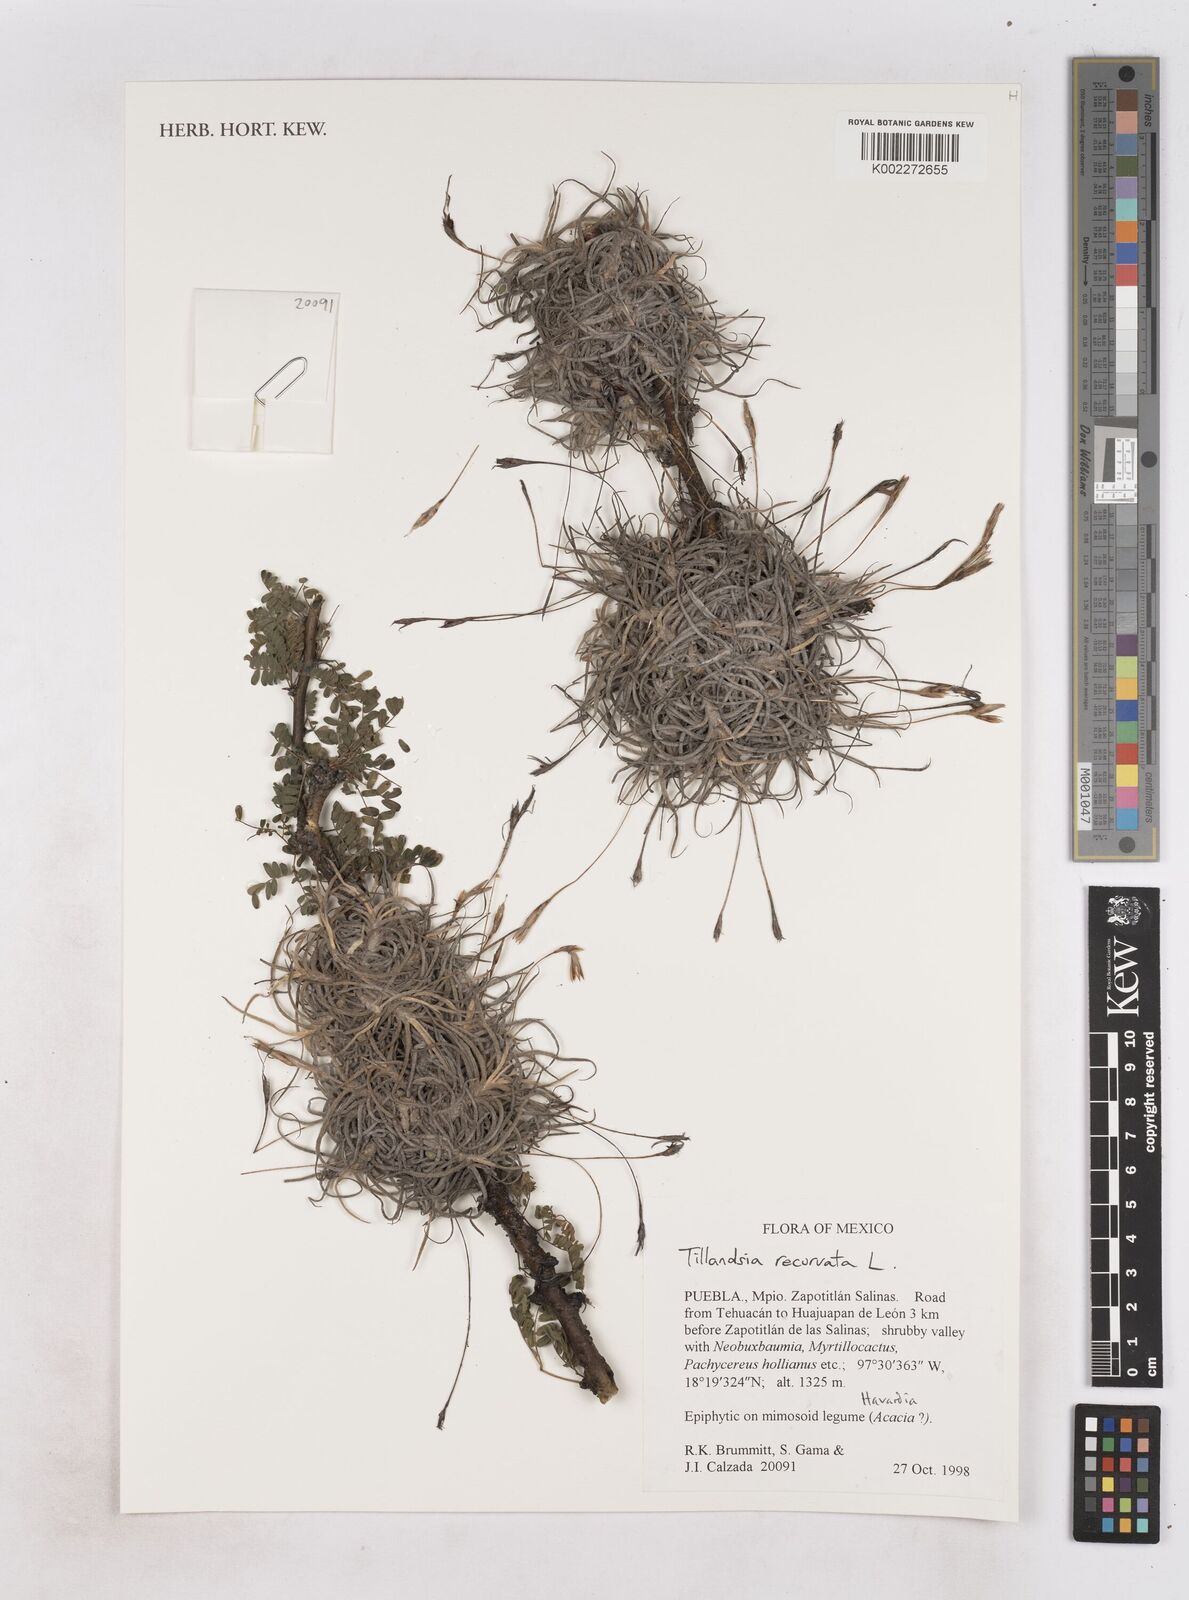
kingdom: Plantae
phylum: Tracheophyta
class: Liliopsida
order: Poales
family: Bromeliaceae
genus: Tillandsia
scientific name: Tillandsia recurvata
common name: Small ballmoss
